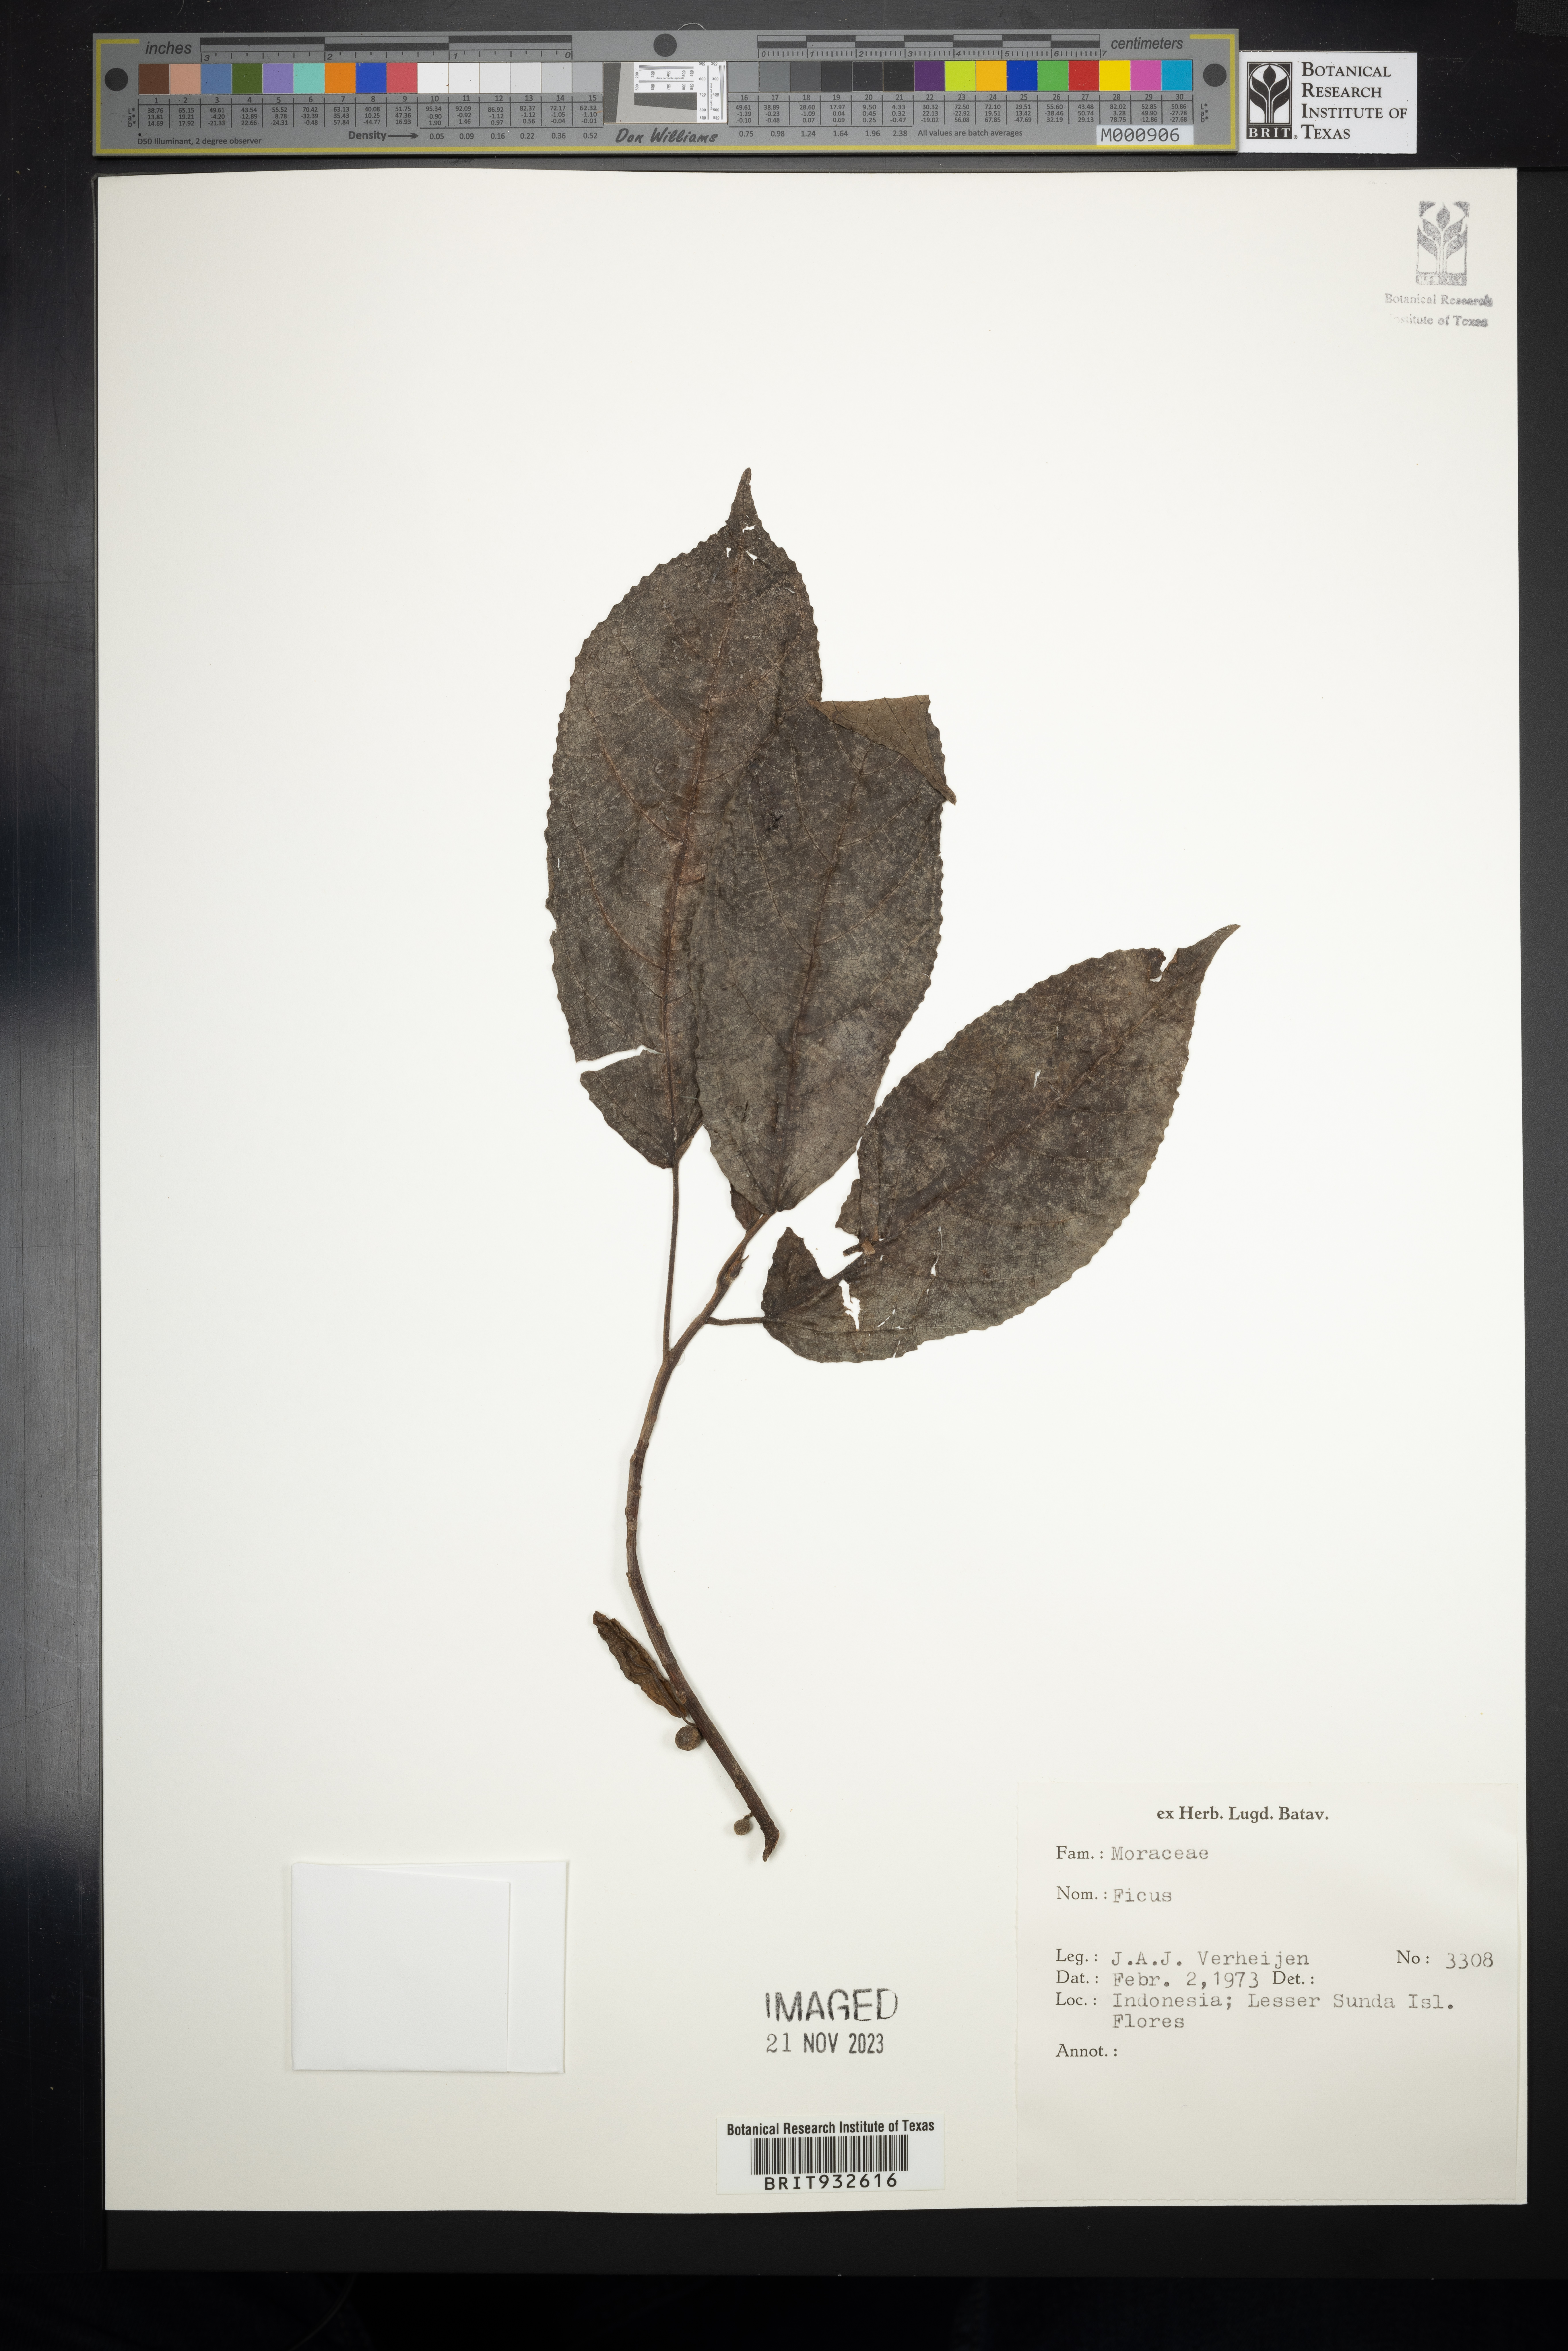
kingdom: Plantae
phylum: Tracheophyta
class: Magnoliopsida
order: Rosales
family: Moraceae
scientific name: Moraceae
